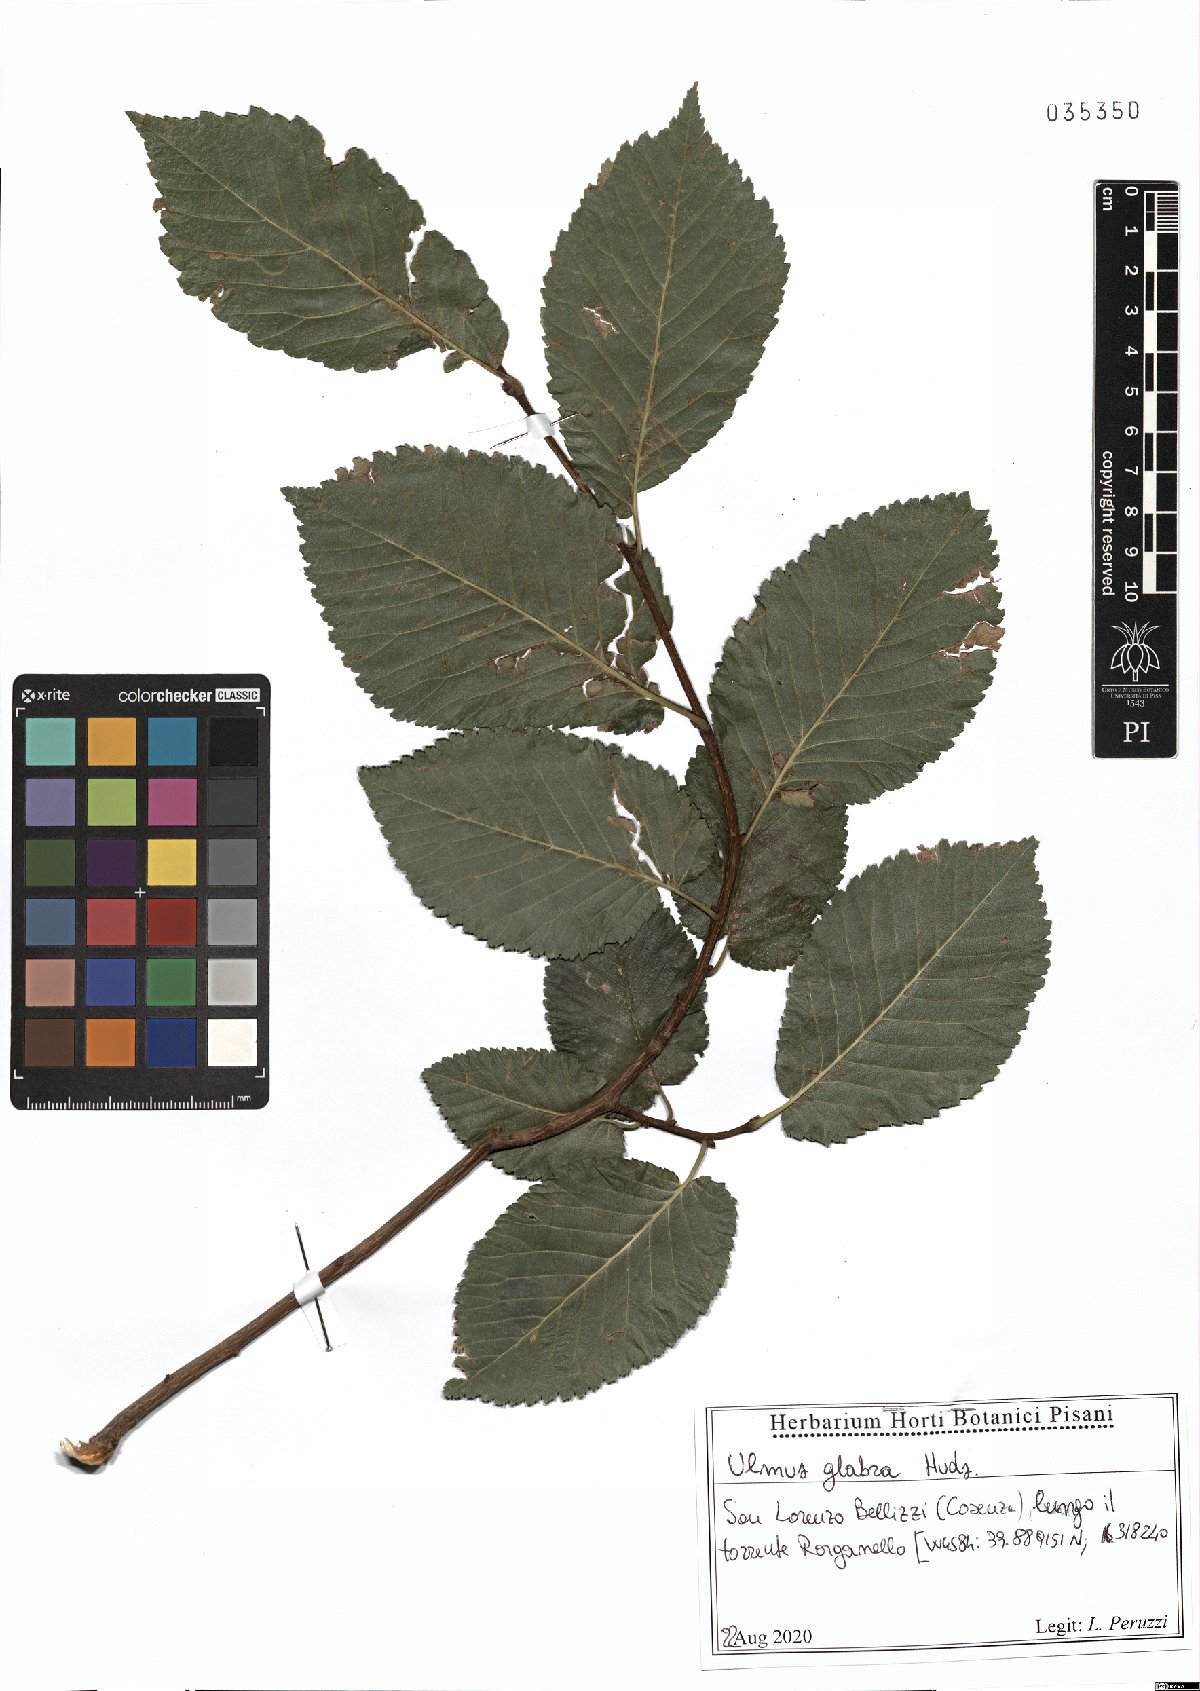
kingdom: Plantae
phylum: Tracheophyta
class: Magnoliopsida
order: Rosales
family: Ulmaceae
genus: Ulmus
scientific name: Ulmus glabra
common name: Wych elm
